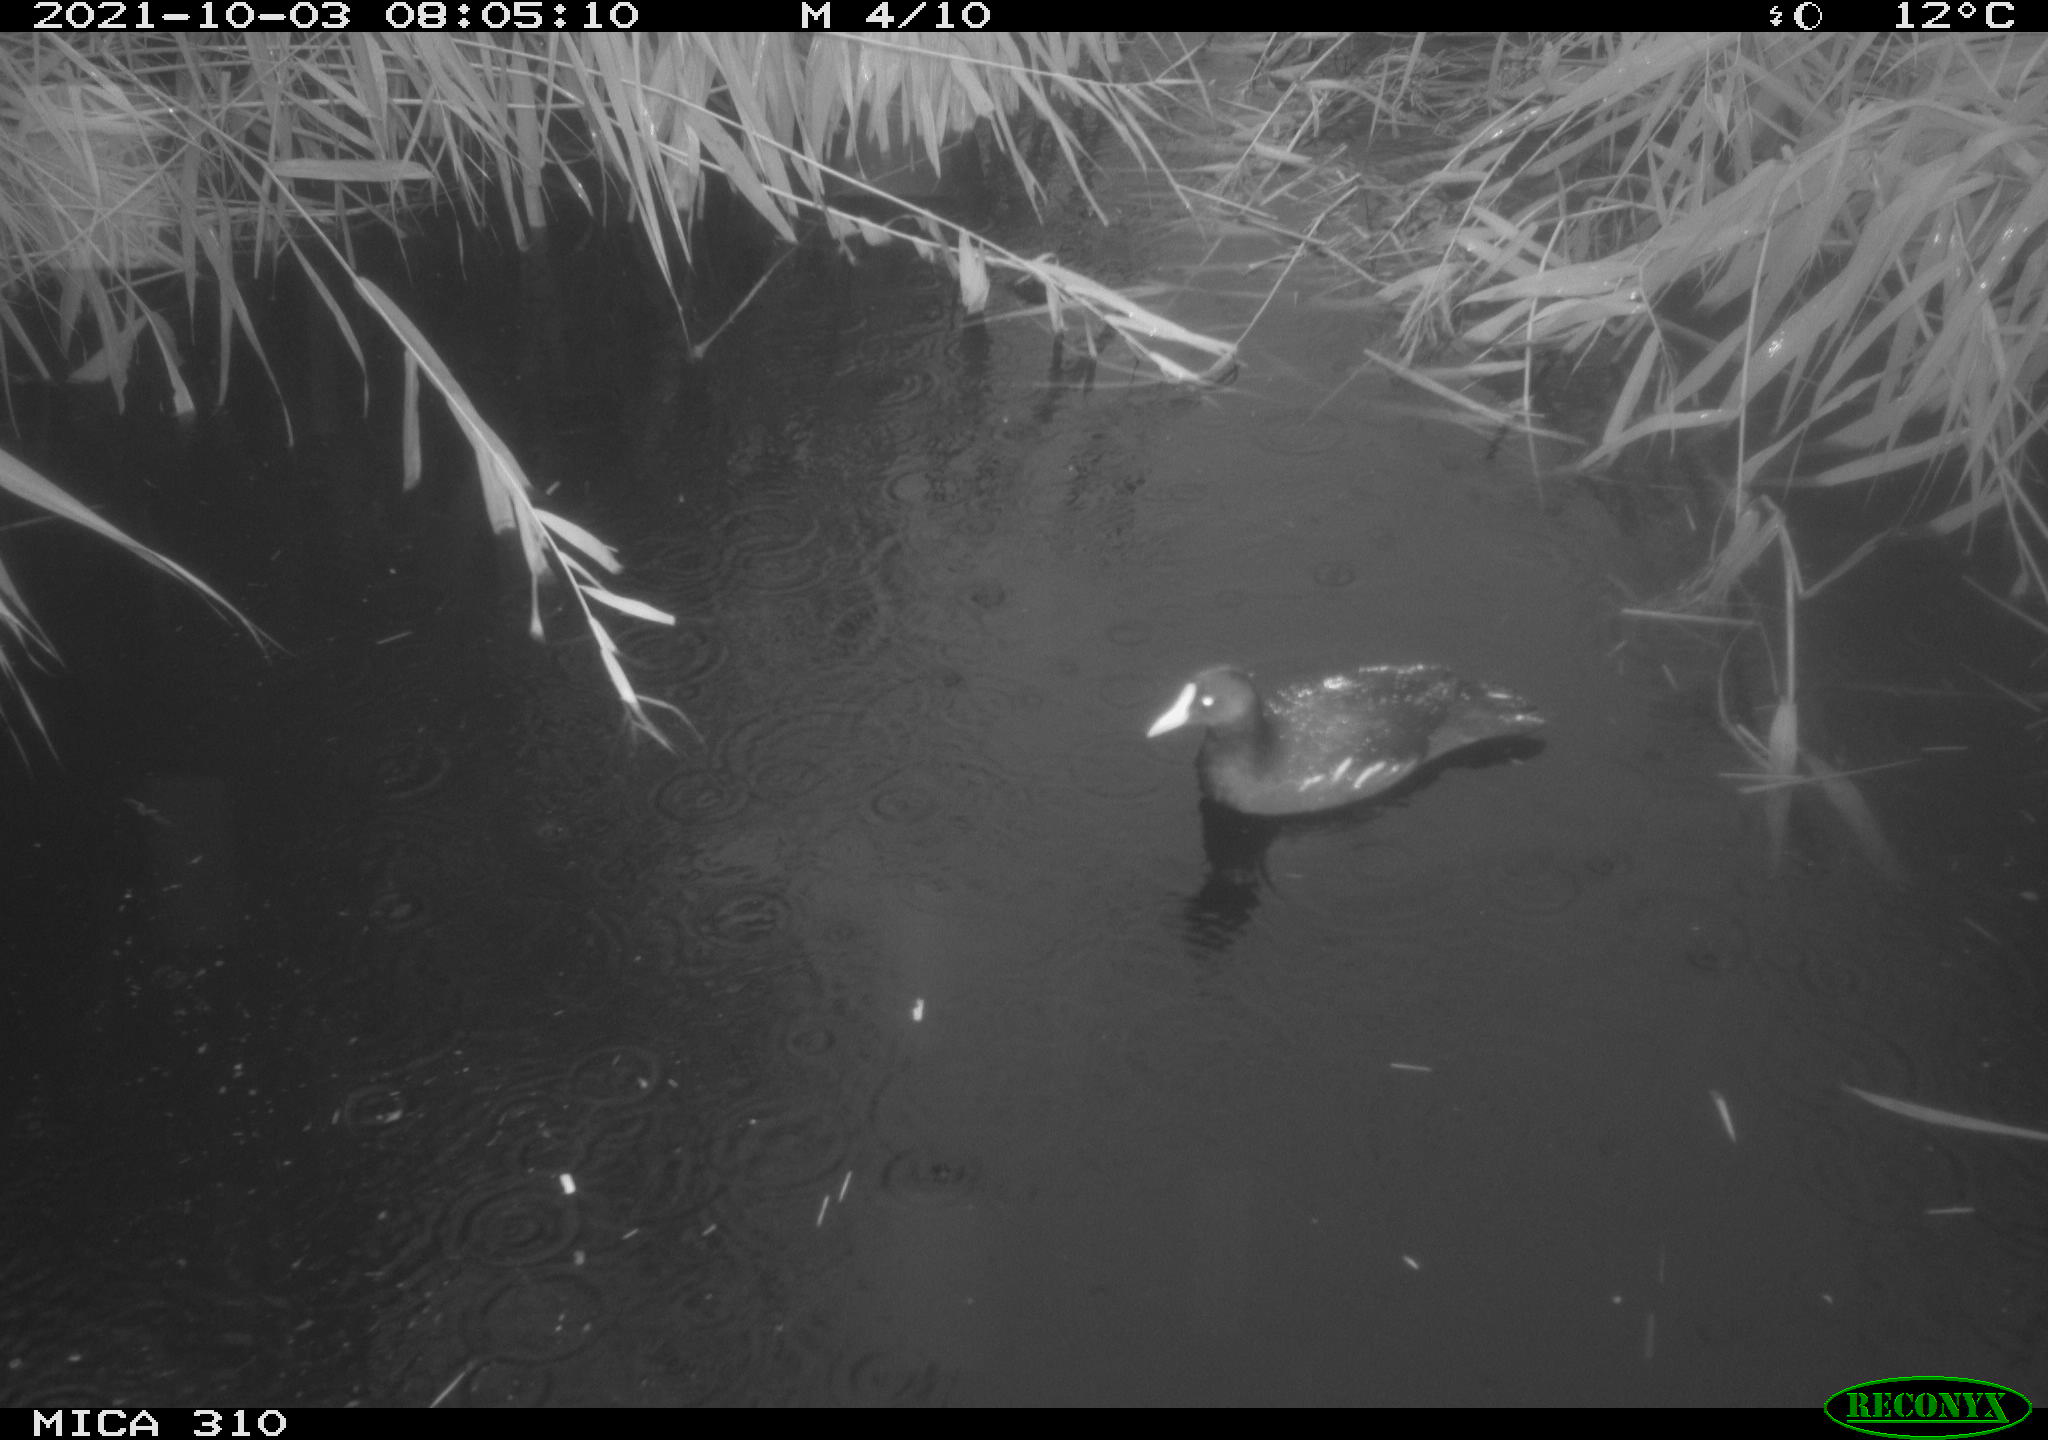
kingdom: Animalia
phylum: Chordata
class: Aves
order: Gruiformes
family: Rallidae
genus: Gallinula
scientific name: Gallinula chloropus
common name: Common moorhen
